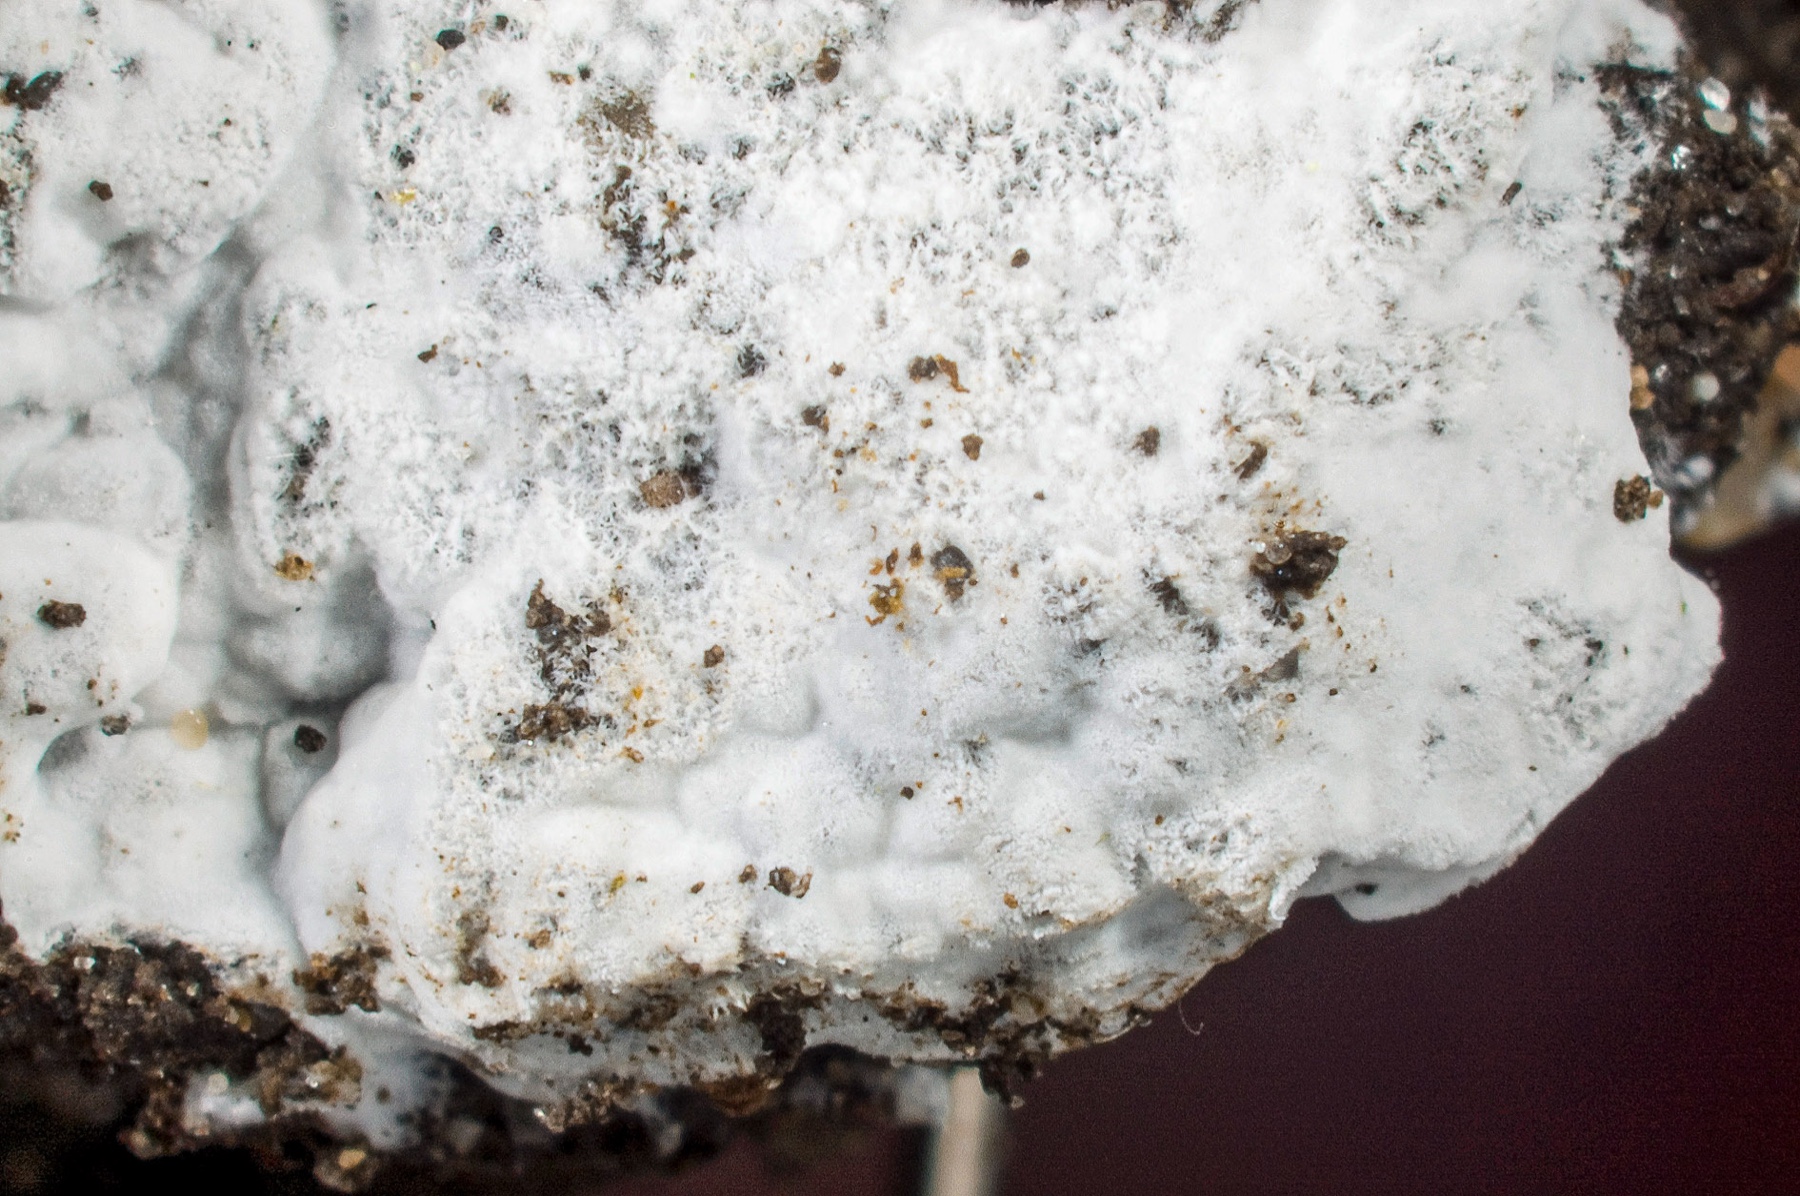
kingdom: Fungi
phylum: Basidiomycota
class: Agaricomycetes
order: Atheliales
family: Atheliaceae
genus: Piloderma
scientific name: Piloderma lanatum
